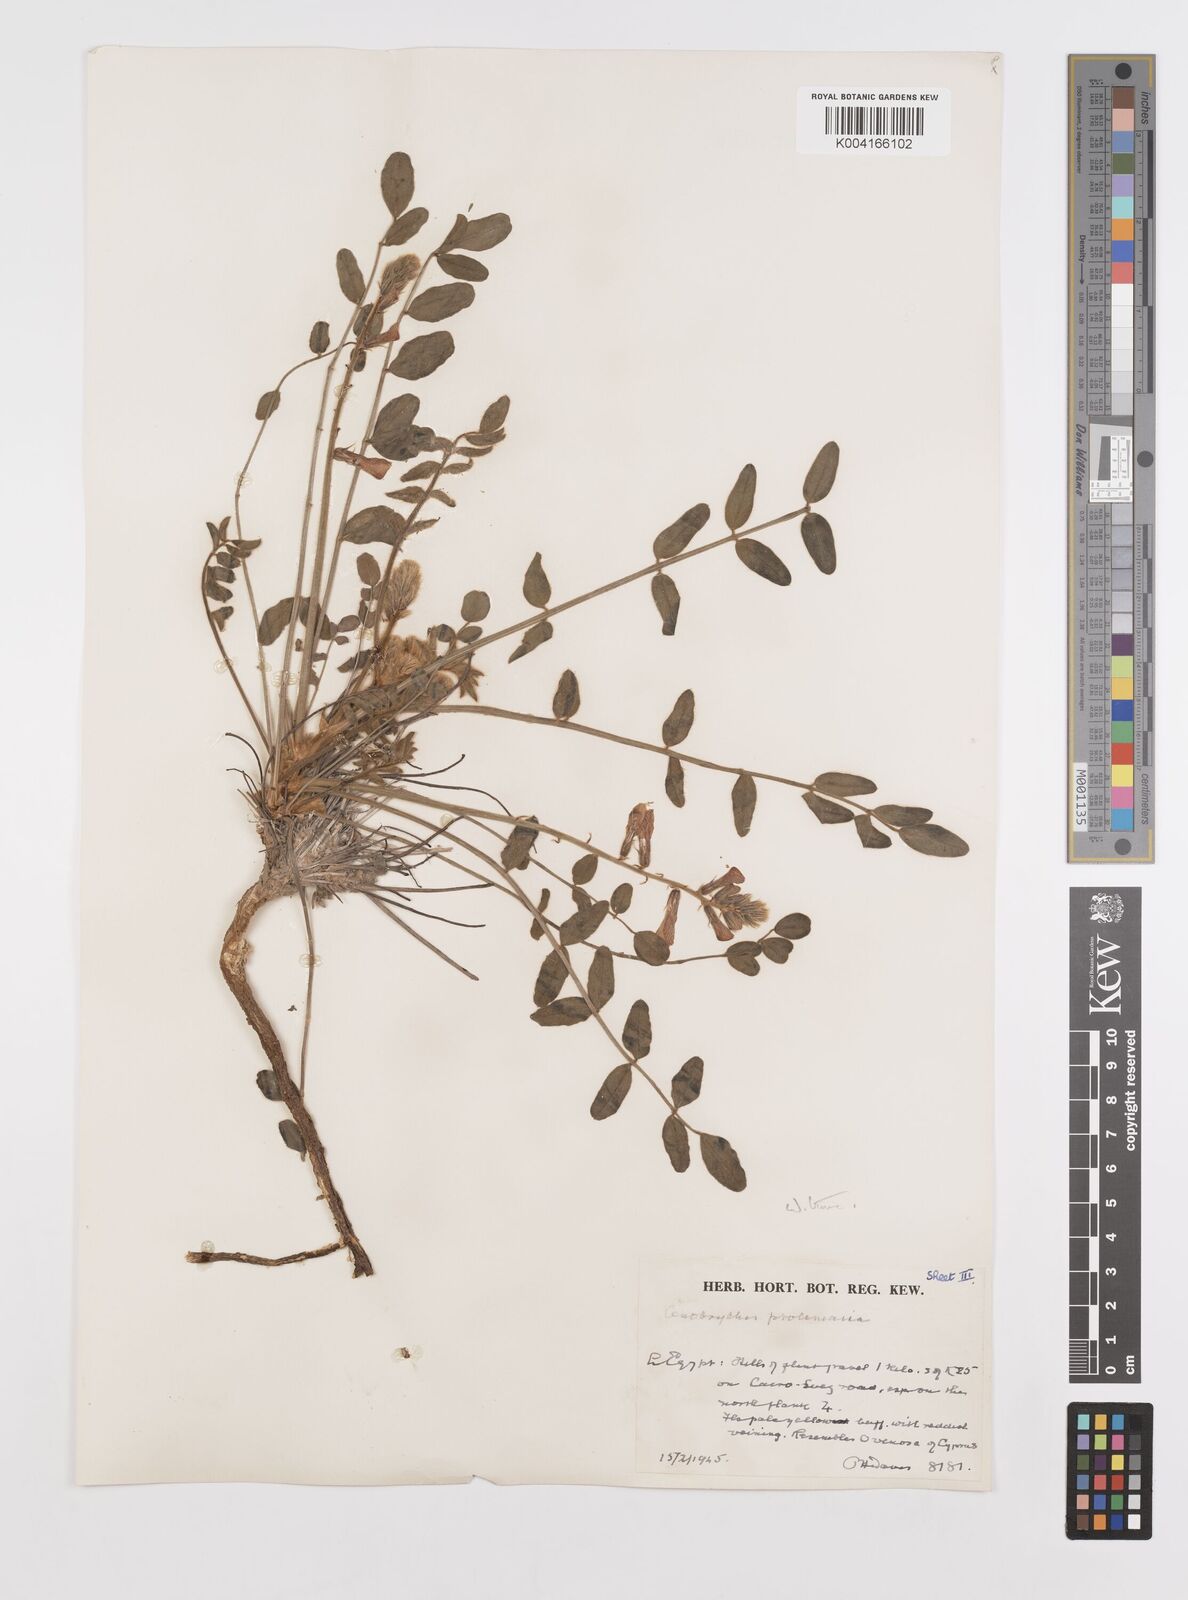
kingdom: Plantae
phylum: Tracheophyta
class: Magnoliopsida
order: Fabales
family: Fabaceae
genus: Onobrychis
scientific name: Onobrychis ptolemaica
